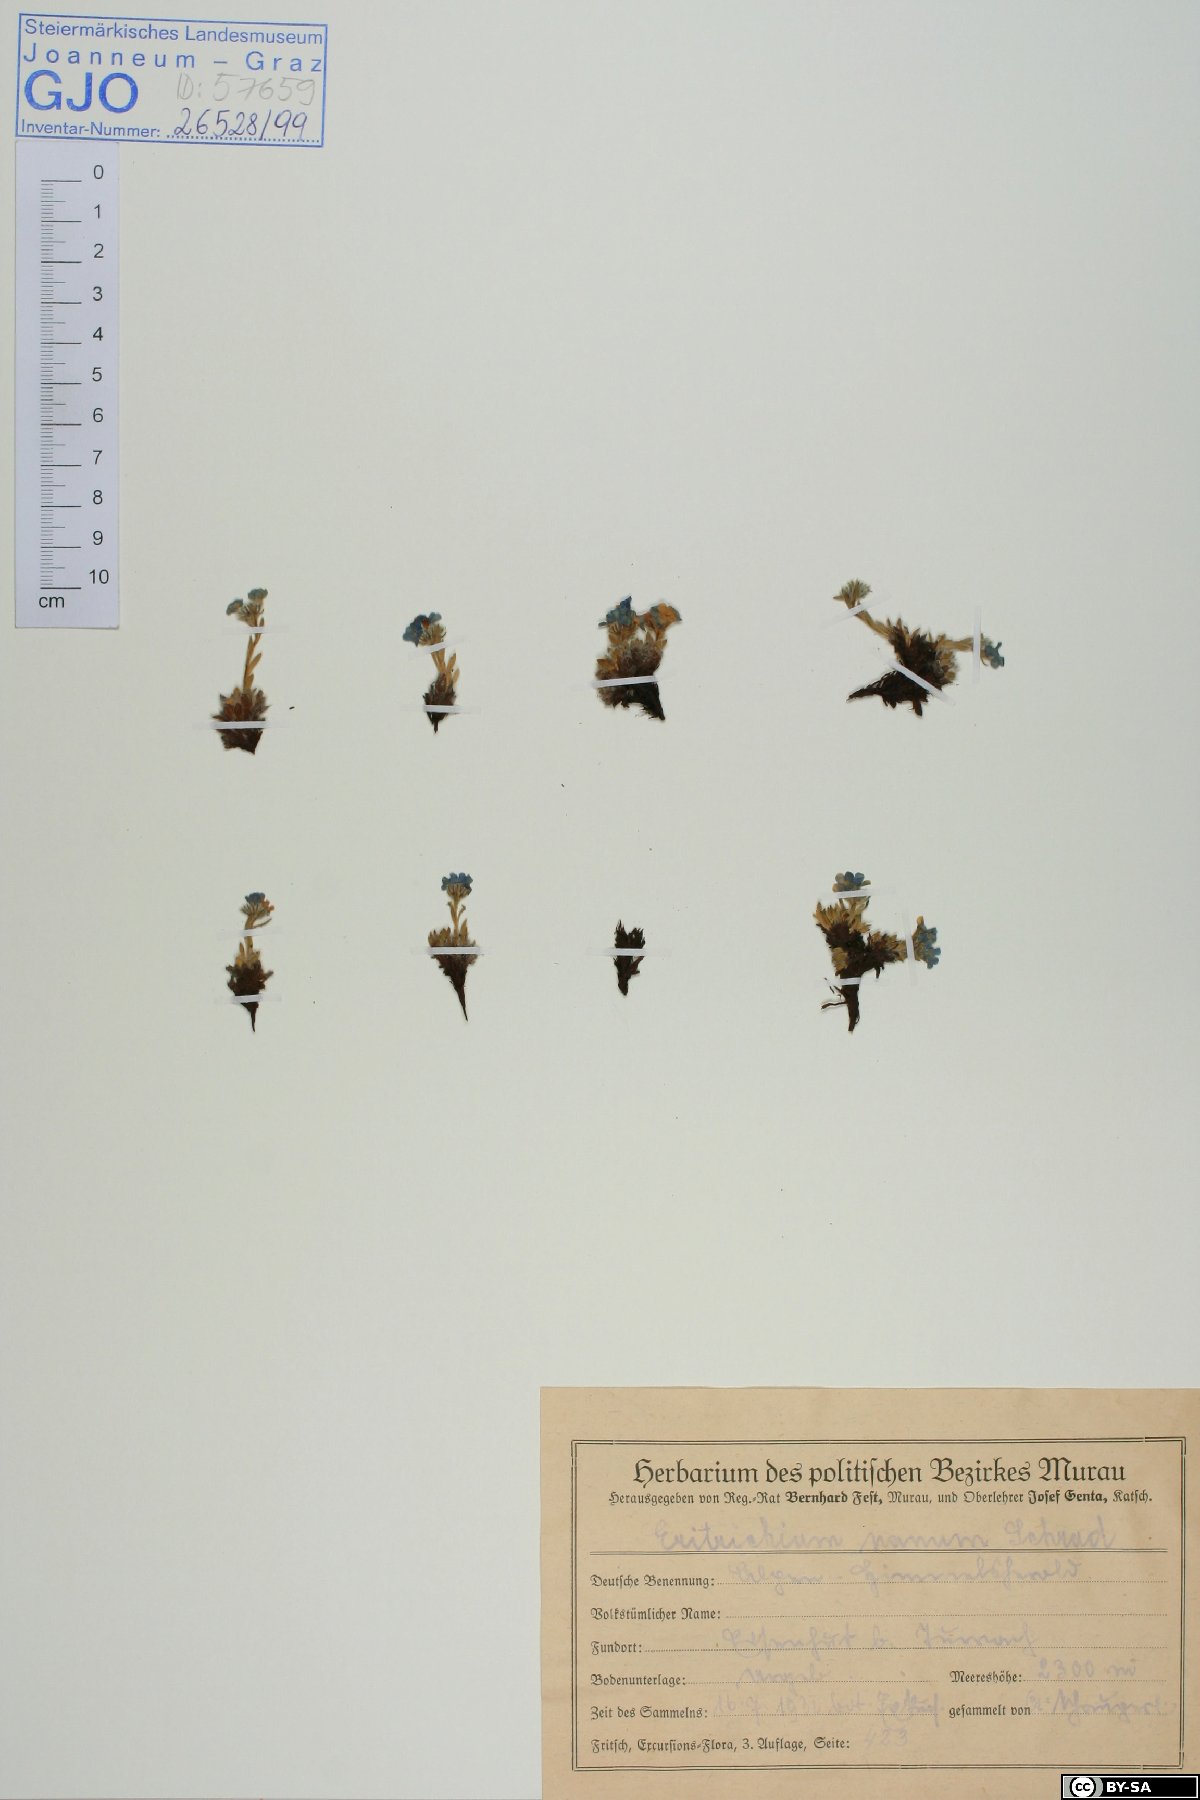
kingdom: Plantae
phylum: Tracheophyta
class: Magnoliopsida
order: Boraginales
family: Boraginaceae
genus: Eritrichium
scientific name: Eritrichium nanum
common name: King-of-the-alps
